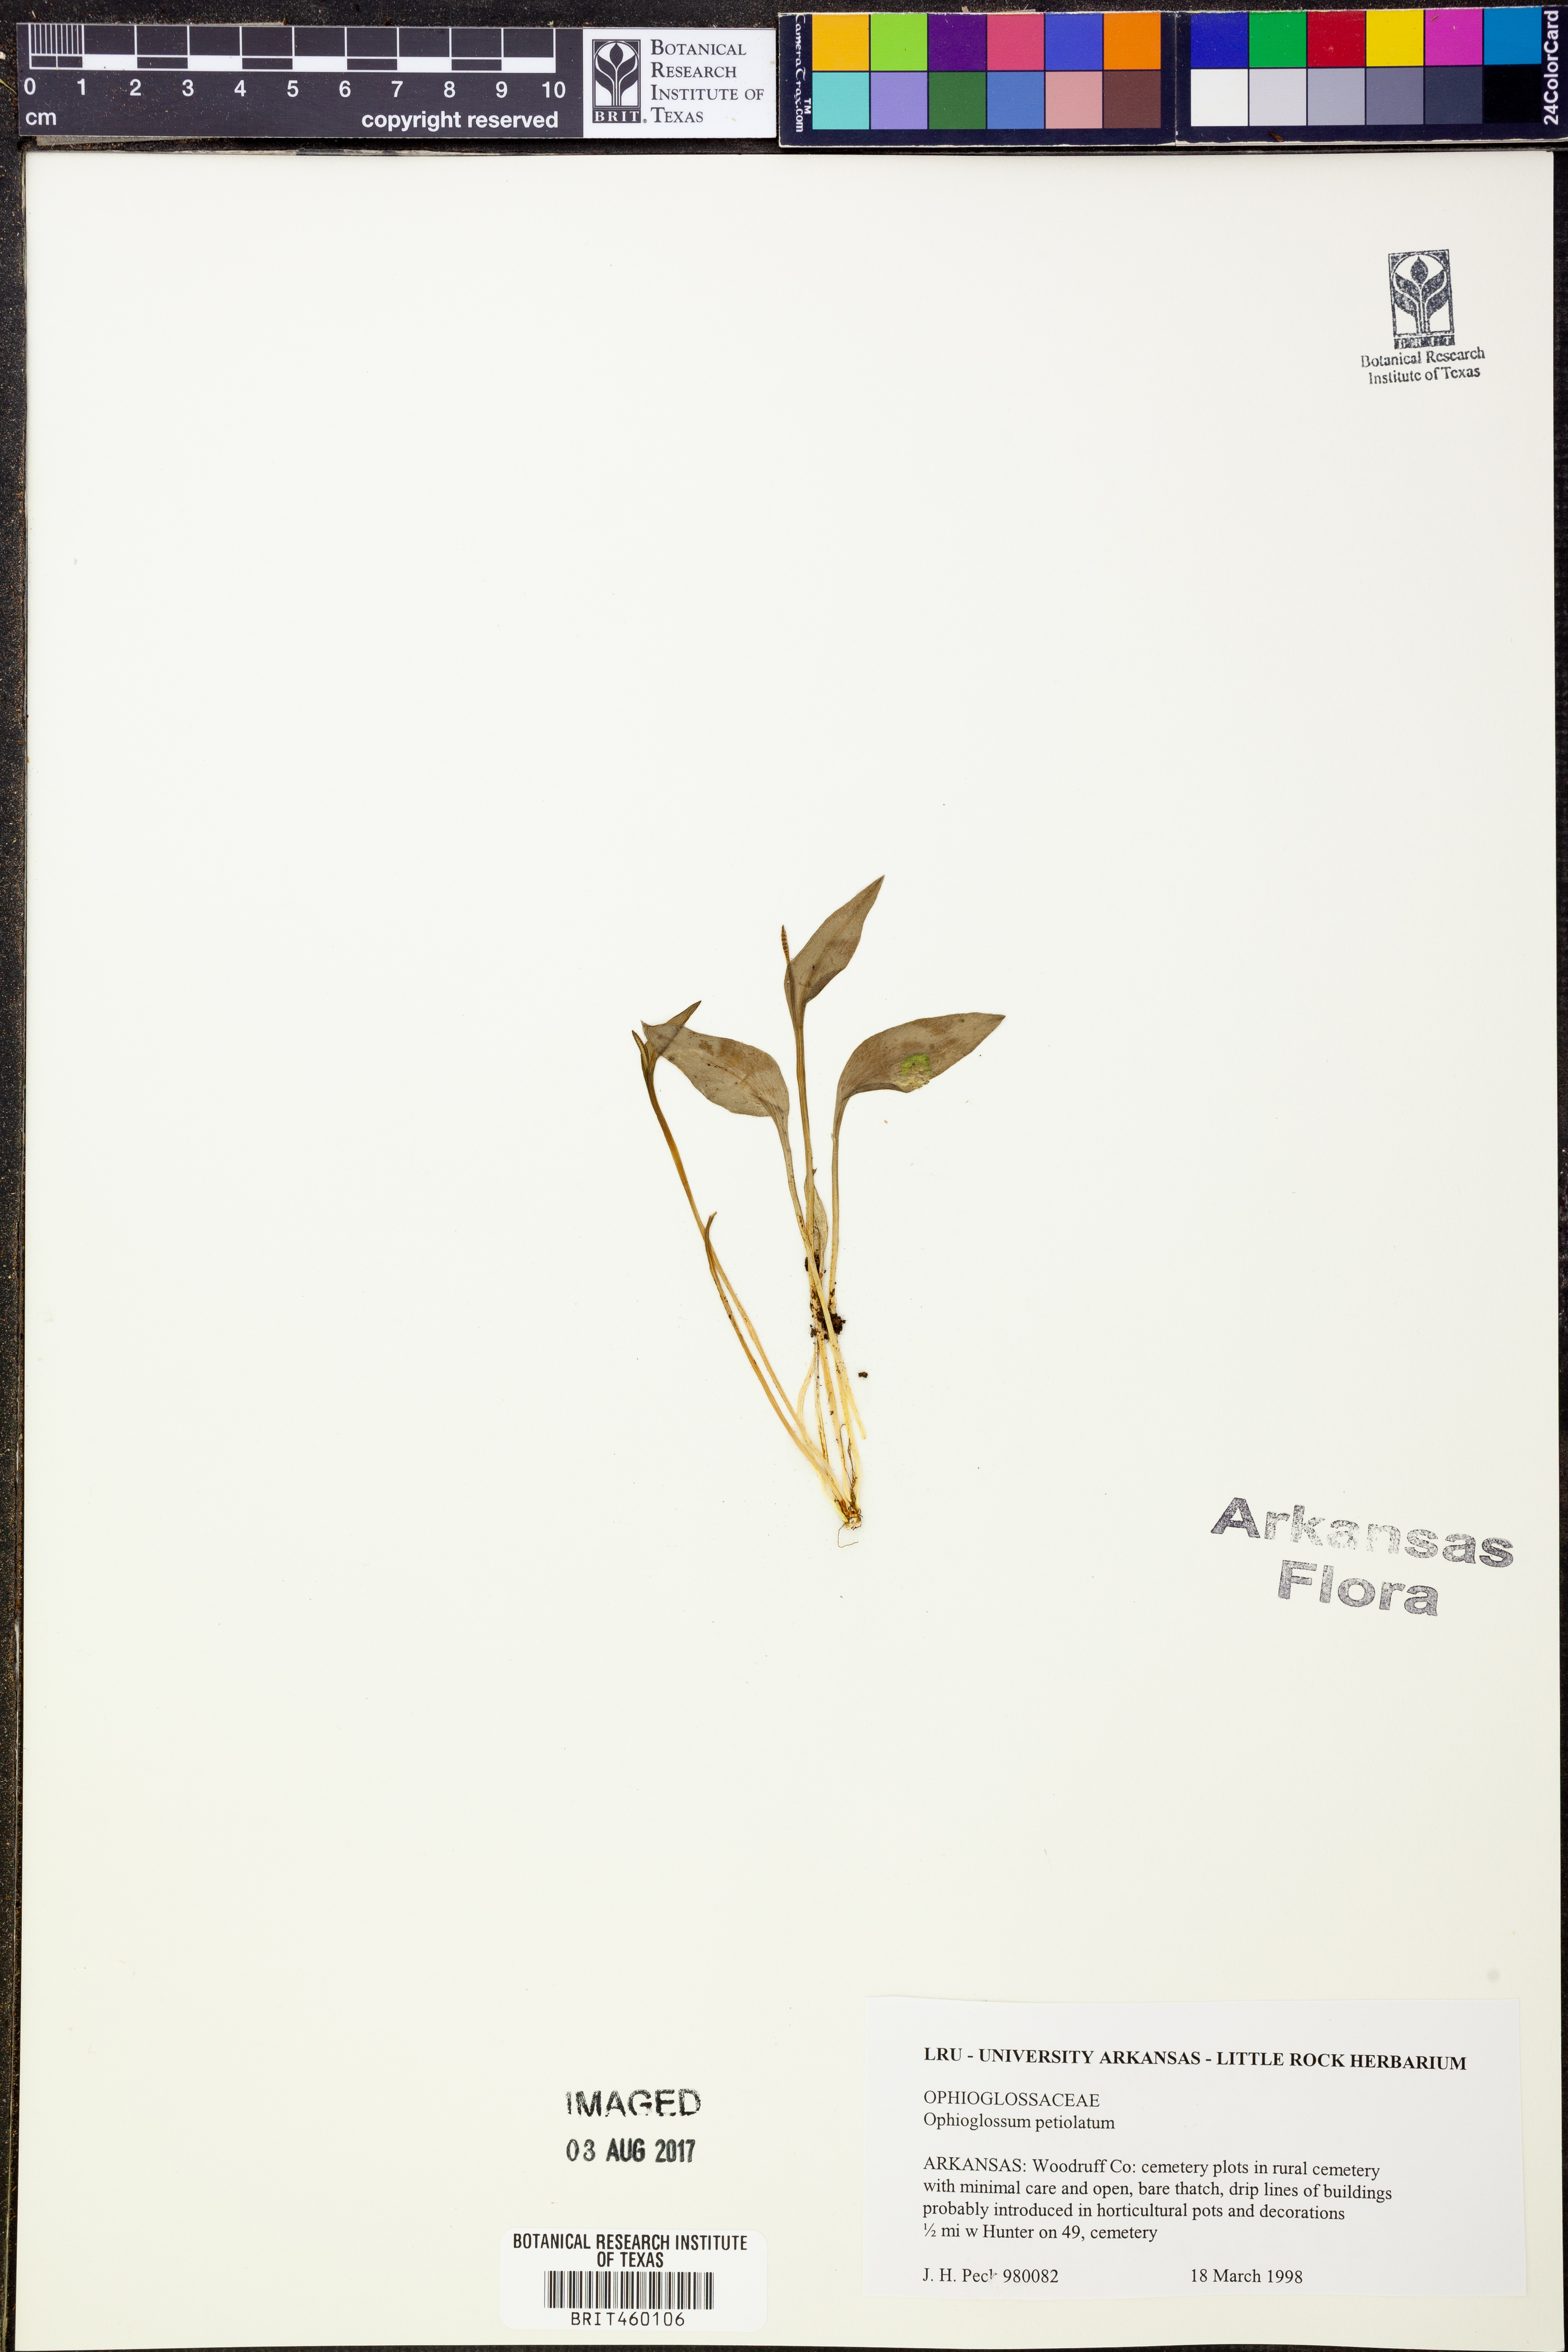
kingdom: Plantae
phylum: Tracheophyta
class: Polypodiopsida
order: Ophioglossales
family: Ophioglossaceae
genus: Ophioglossum
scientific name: Ophioglossum petiolatum
